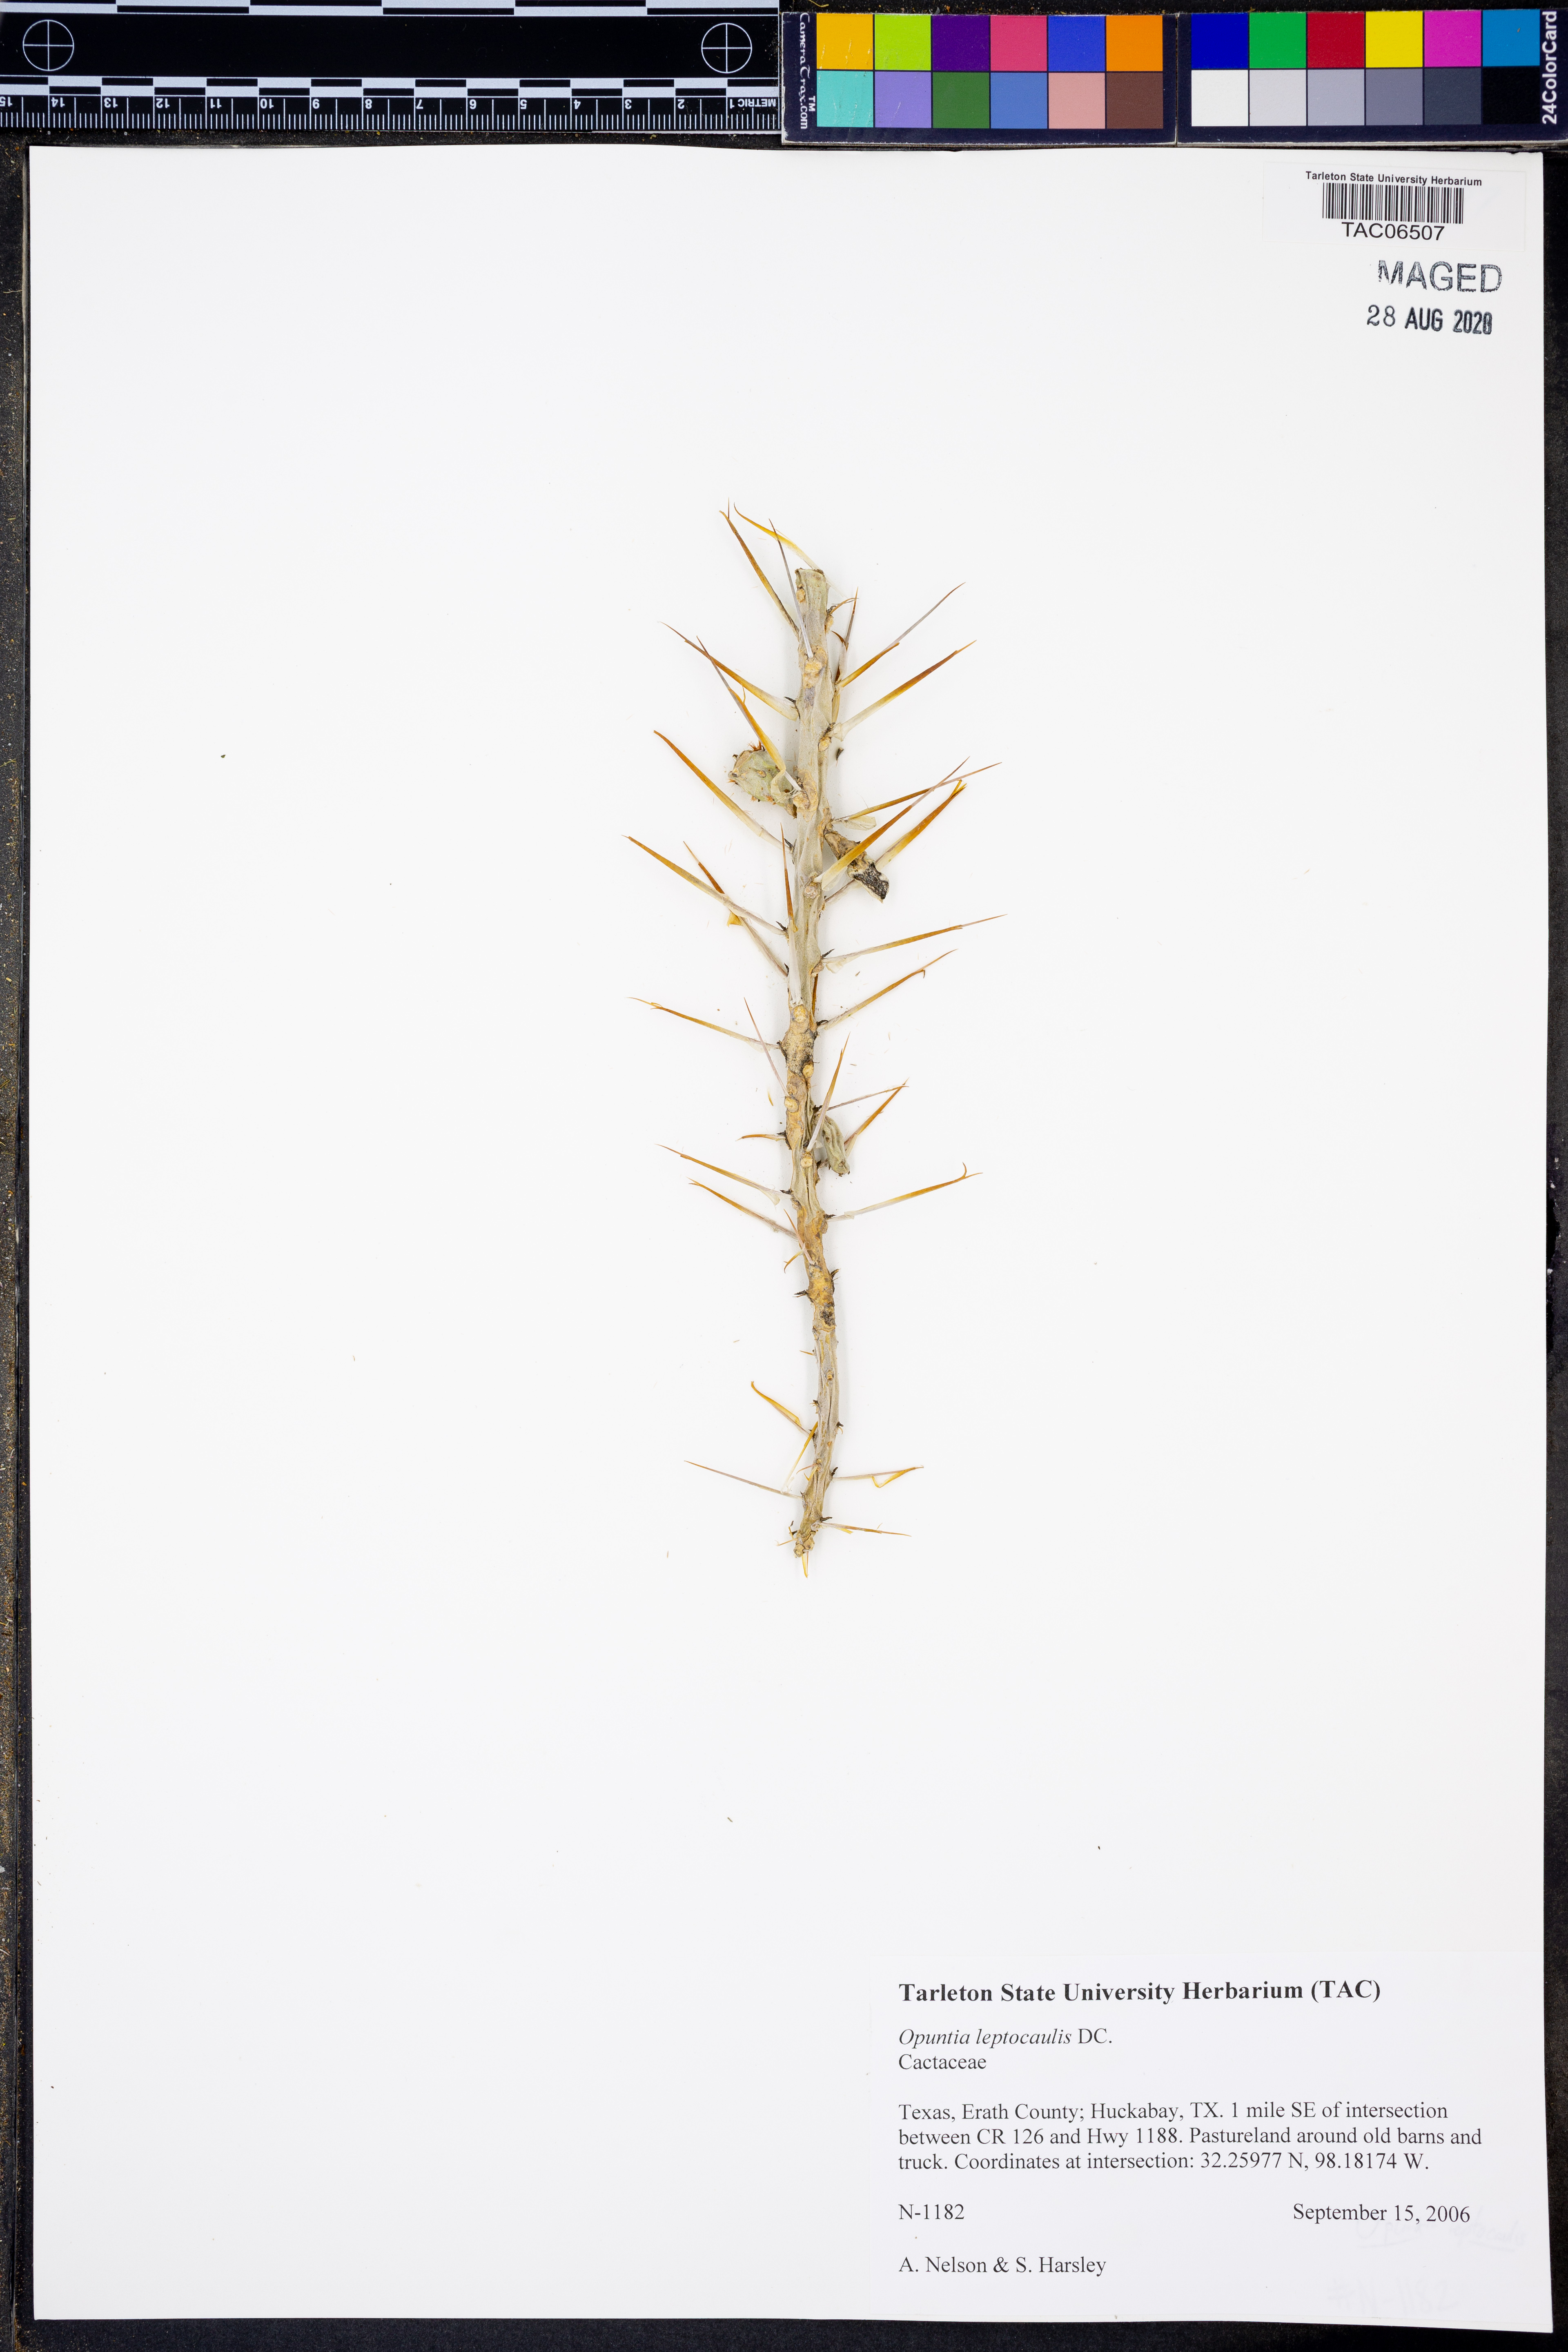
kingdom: Plantae
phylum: Tracheophyta
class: Magnoliopsida
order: Caryophyllales
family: Cactaceae
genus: Cylindropuntia
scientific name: Cylindropuntia leptocaulis
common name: Christmas cactus
